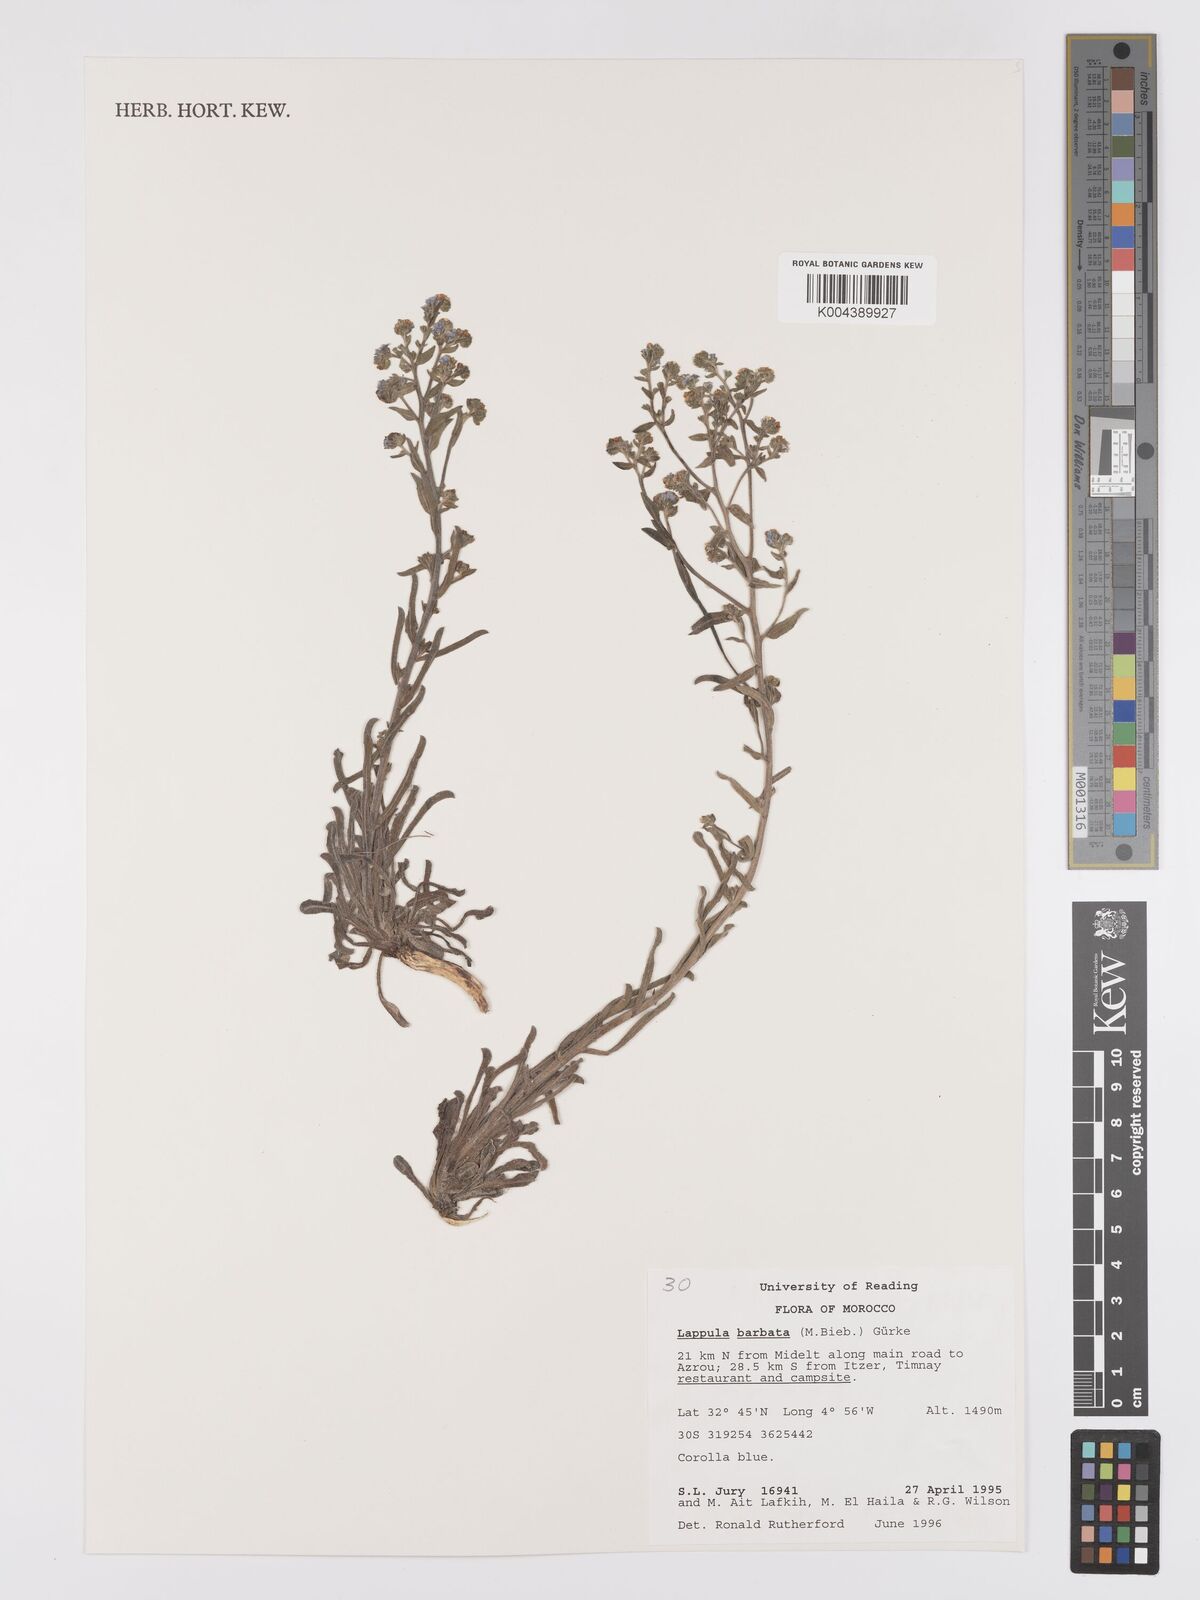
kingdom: Plantae
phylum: Tracheophyta
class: Magnoliopsida
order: Boraginales
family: Boraginaceae
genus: Lappula
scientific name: Lappula barbata
